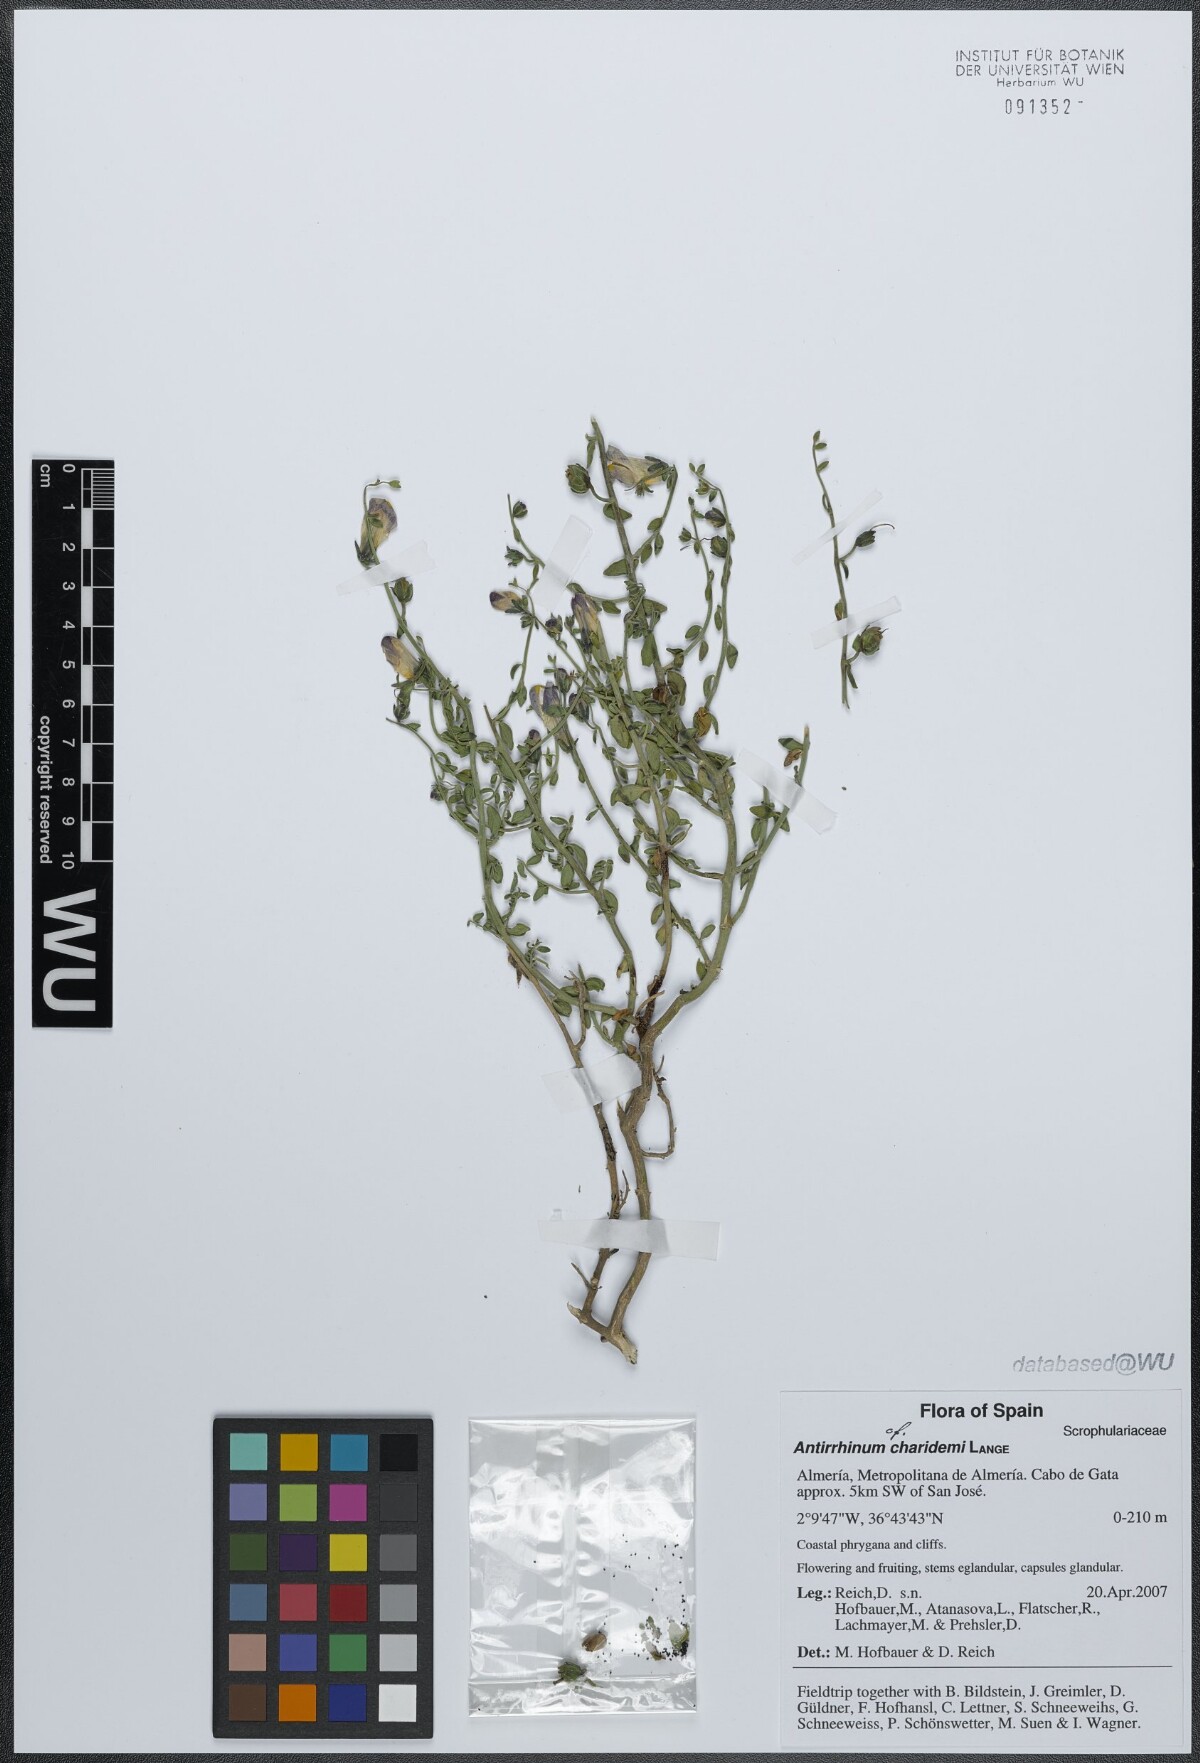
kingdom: Plantae
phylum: Tracheophyta
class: Magnoliopsida
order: Lamiales
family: Plantaginaceae
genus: Antirrhinum
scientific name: Antirrhinum charidemi
